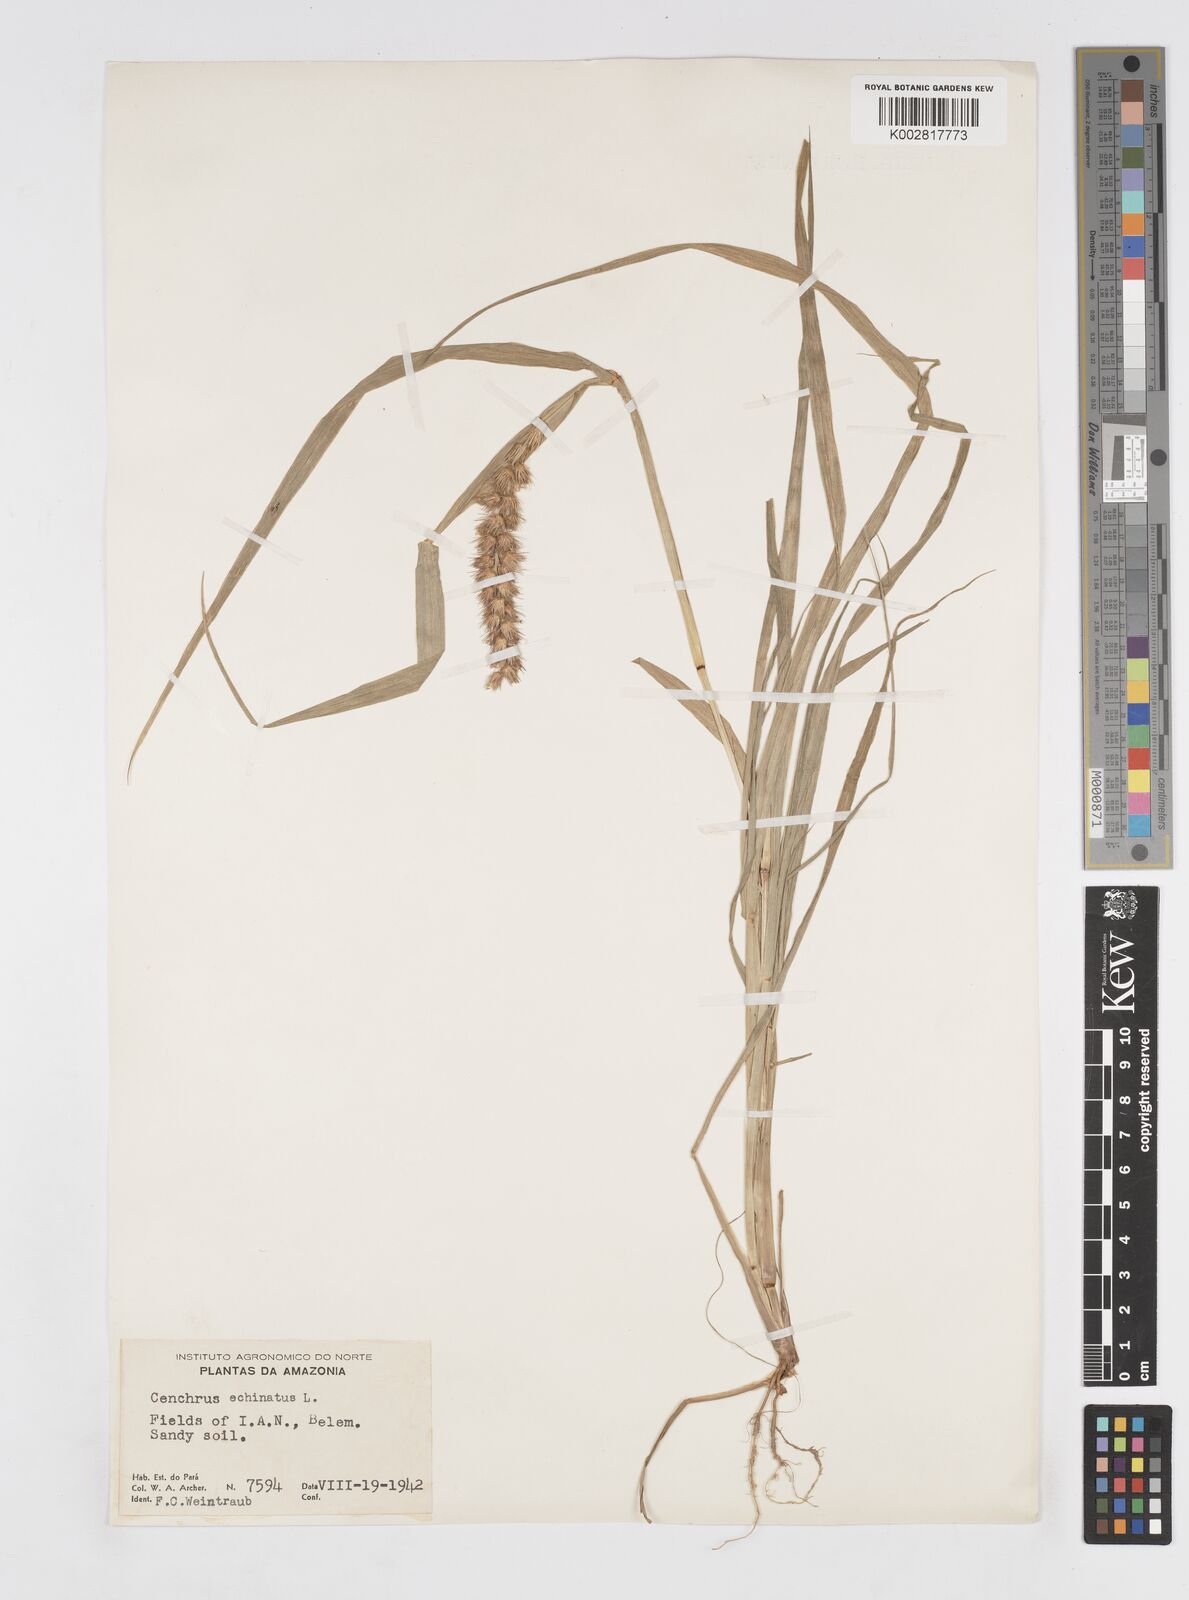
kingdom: Plantae
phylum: Tracheophyta
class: Liliopsida
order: Poales
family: Poaceae
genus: Cenchrus
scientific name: Cenchrus
